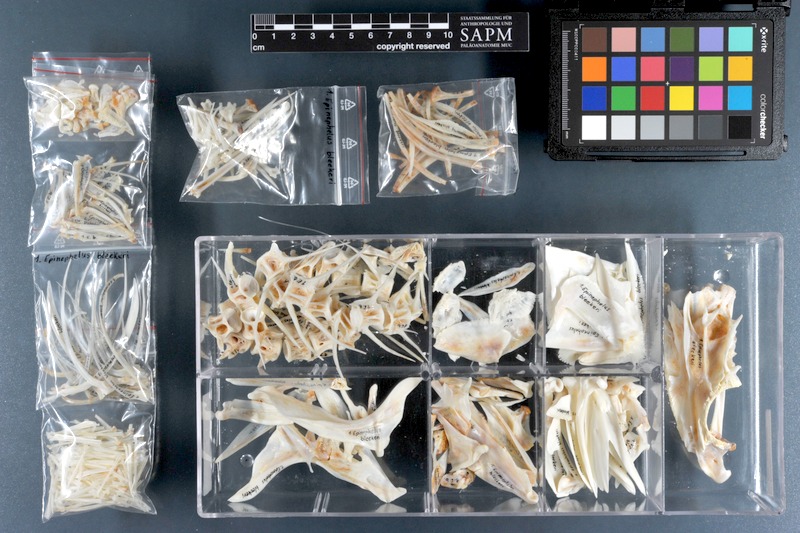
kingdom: Animalia
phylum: Chordata
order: Perciformes
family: Serranidae
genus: Epinephelus
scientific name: Epinephelus bleekeri
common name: Duskytail grouper
